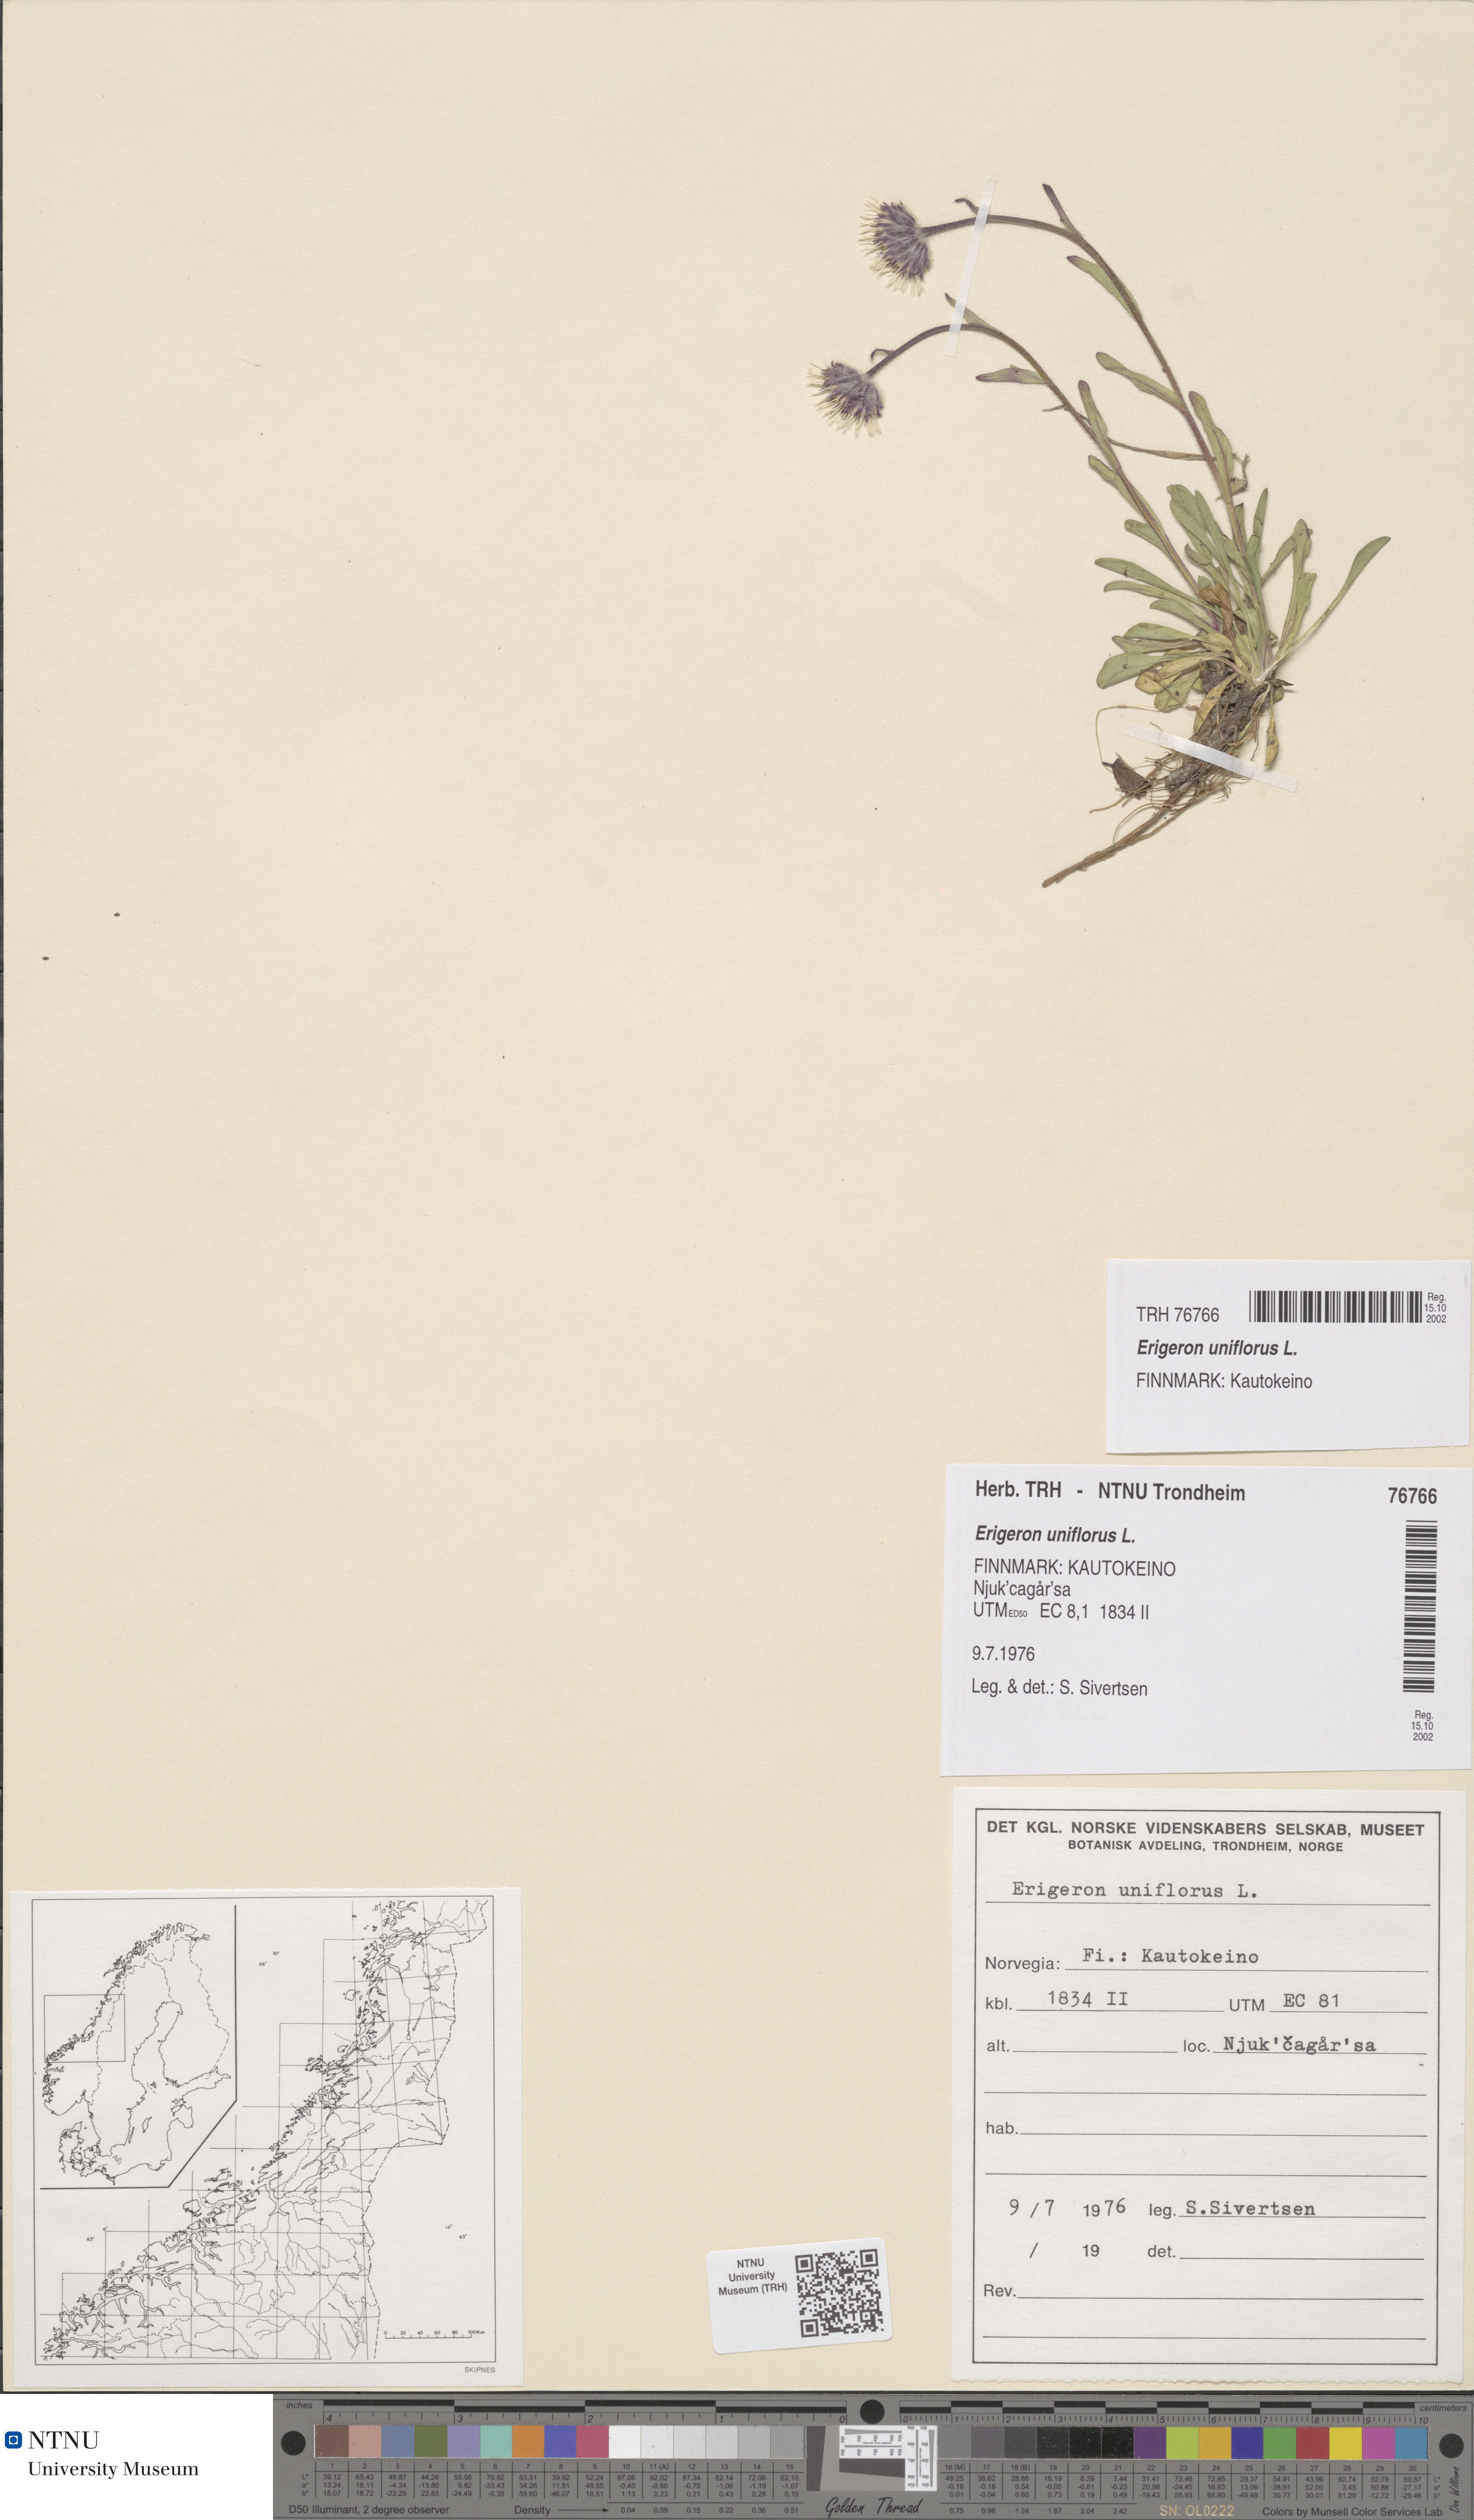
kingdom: Plantae
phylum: Tracheophyta
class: Magnoliopsida
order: Asterales
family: Asteraceae
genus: Erigeron
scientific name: Erigeron uniflorus
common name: Northern daisy
